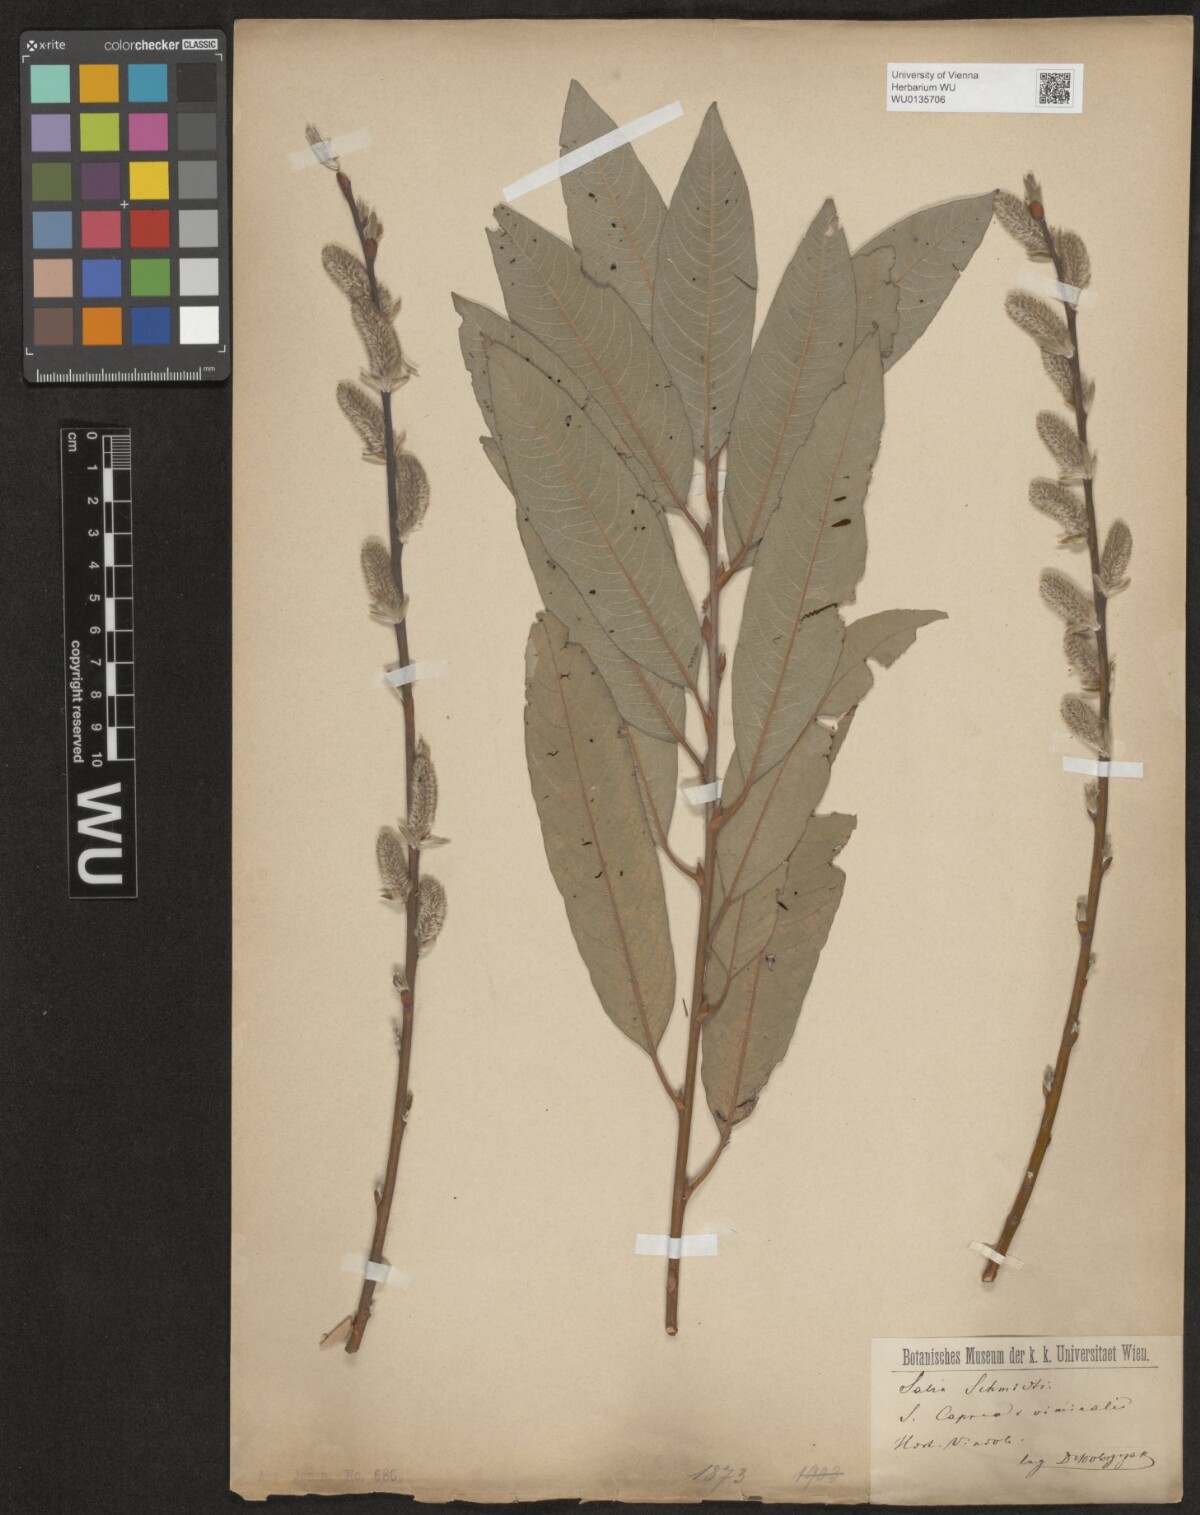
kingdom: Plantae
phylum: Tracheophyta
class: Magnoliopsida
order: Malpighiales
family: Salicaceae
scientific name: Salicaceae
